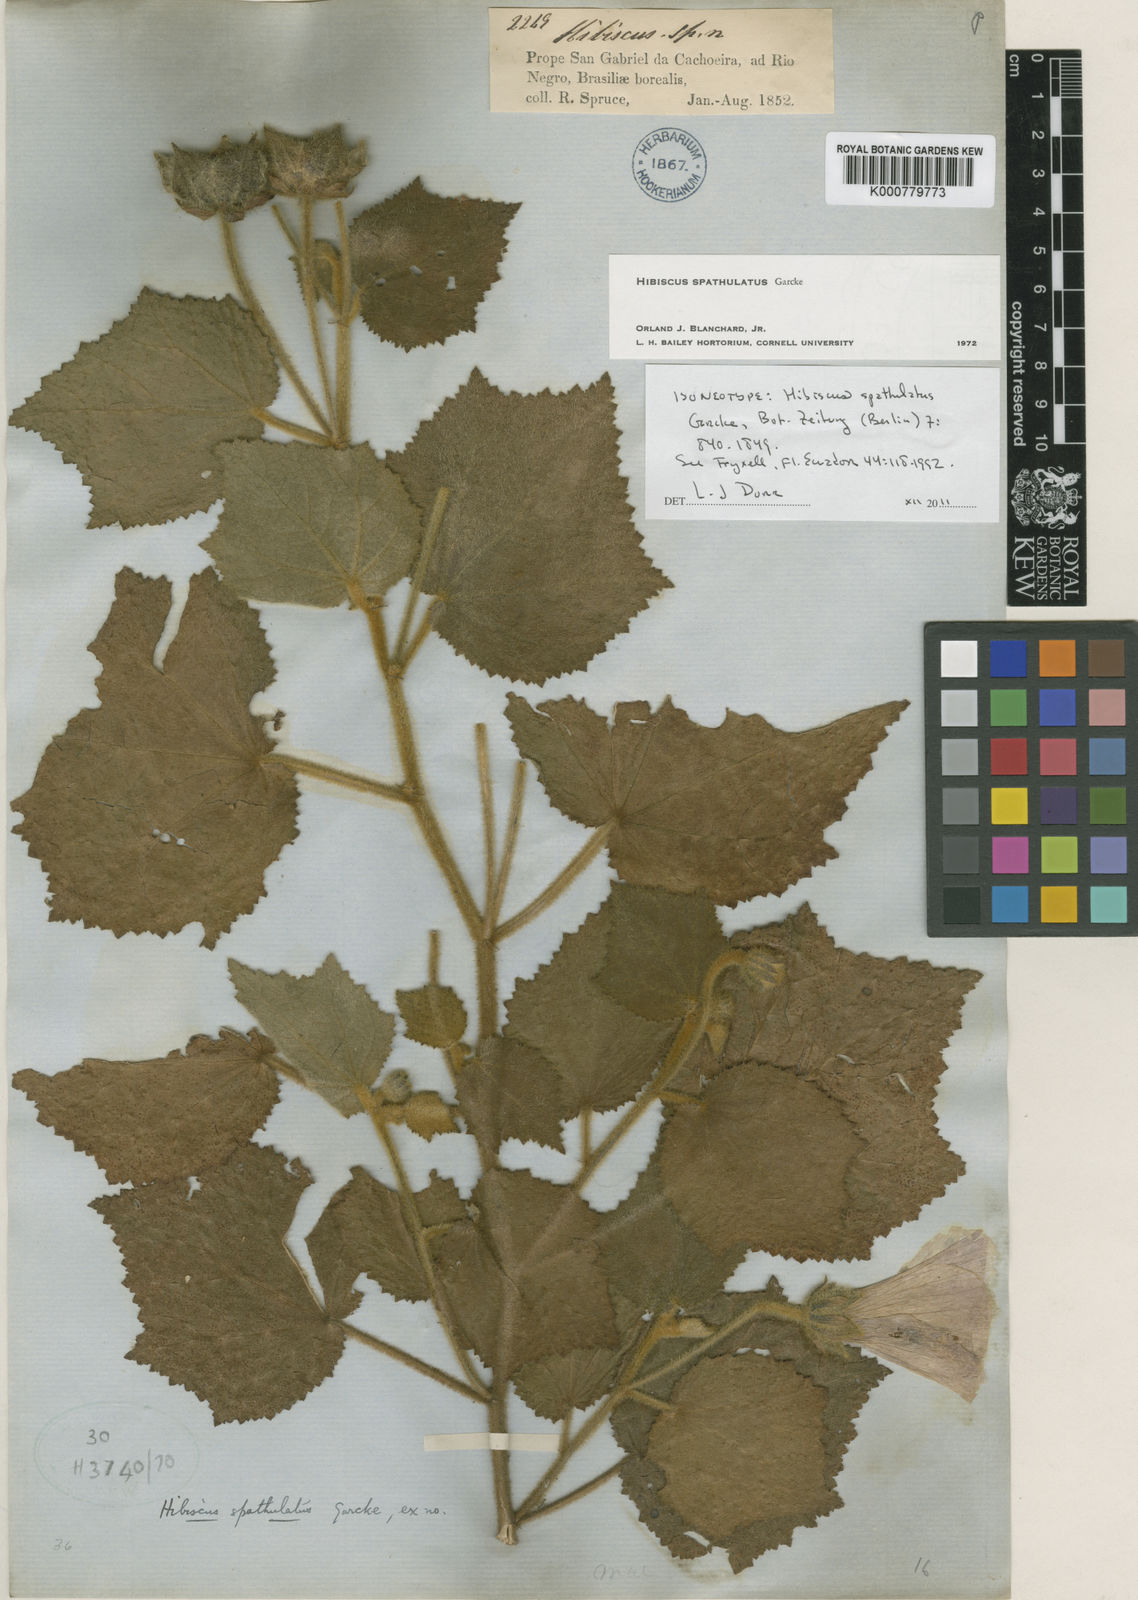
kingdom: Plantae
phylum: Tracheophyta
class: Magnoliopsida
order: Malvales
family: Malvaceae
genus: Hibiscus
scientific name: Hibiscus verbasciformis
